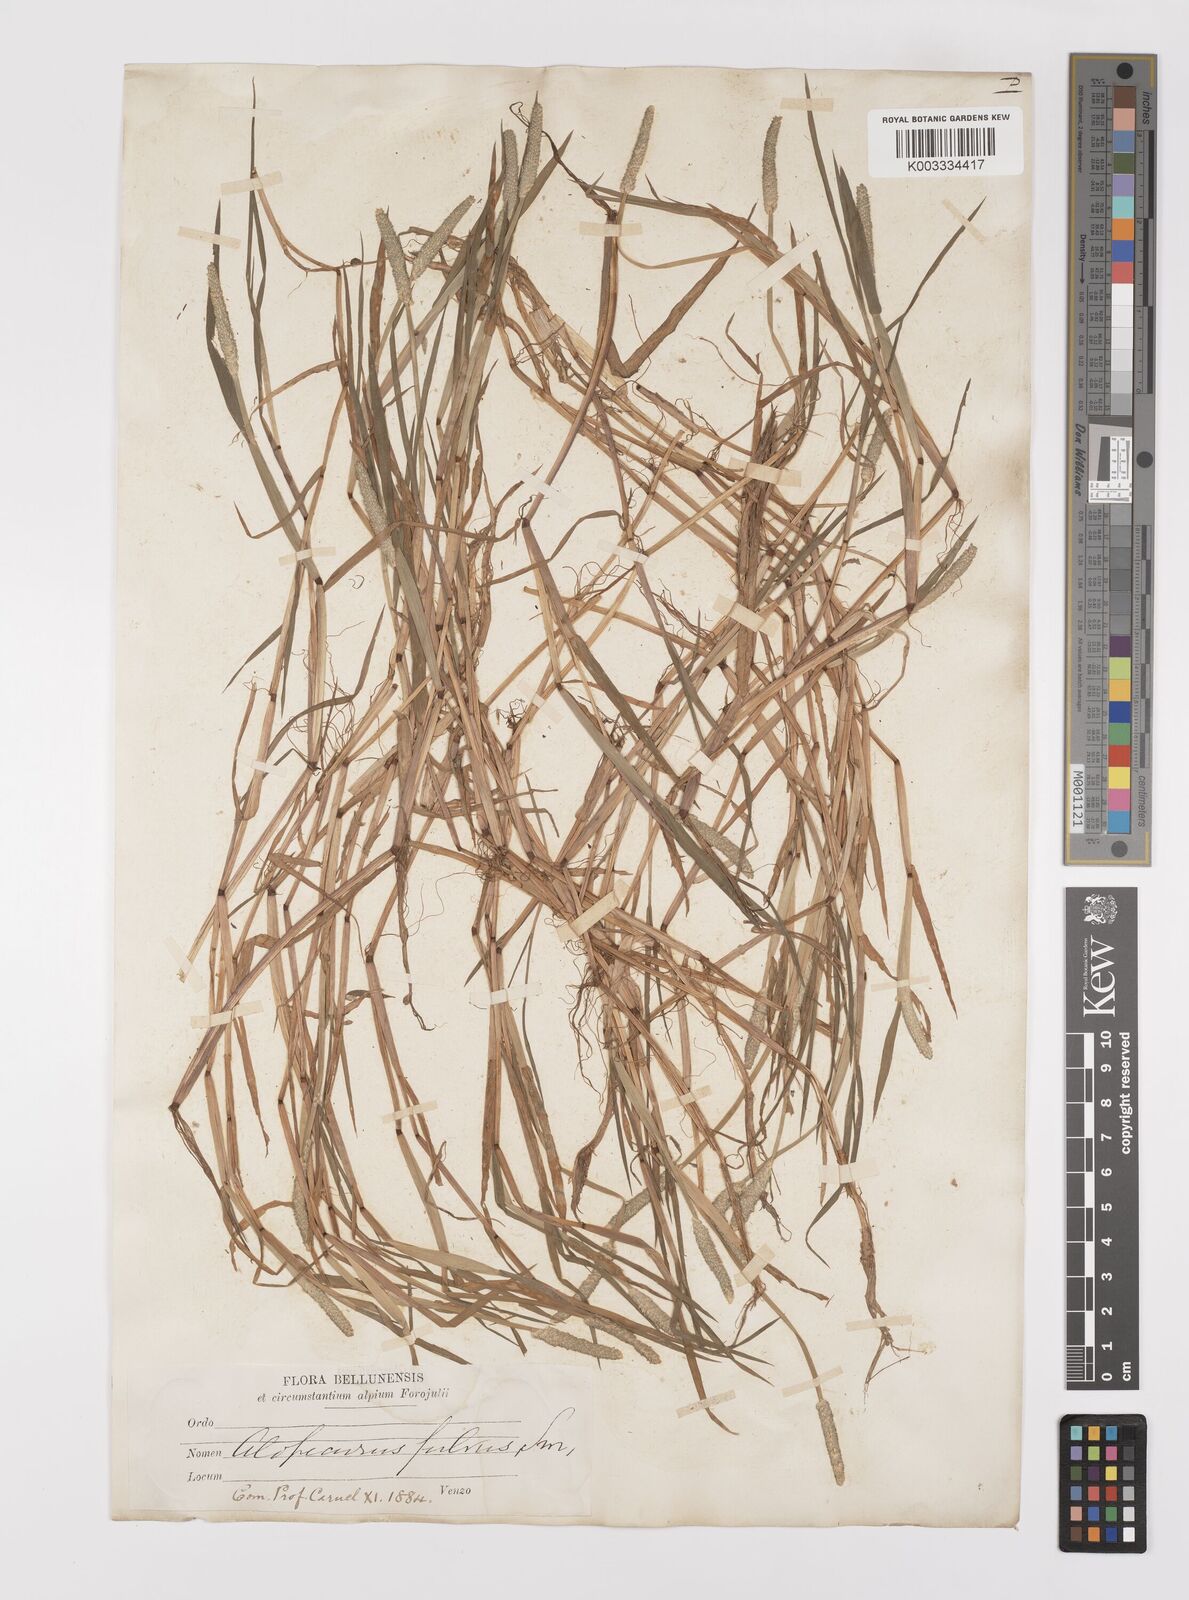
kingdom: Plantae
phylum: Tracheophyta
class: Liliopsida
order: Poales
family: Poaceae
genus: Alopecurus
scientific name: Alopecurus aequalis
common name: Orange foxtail
